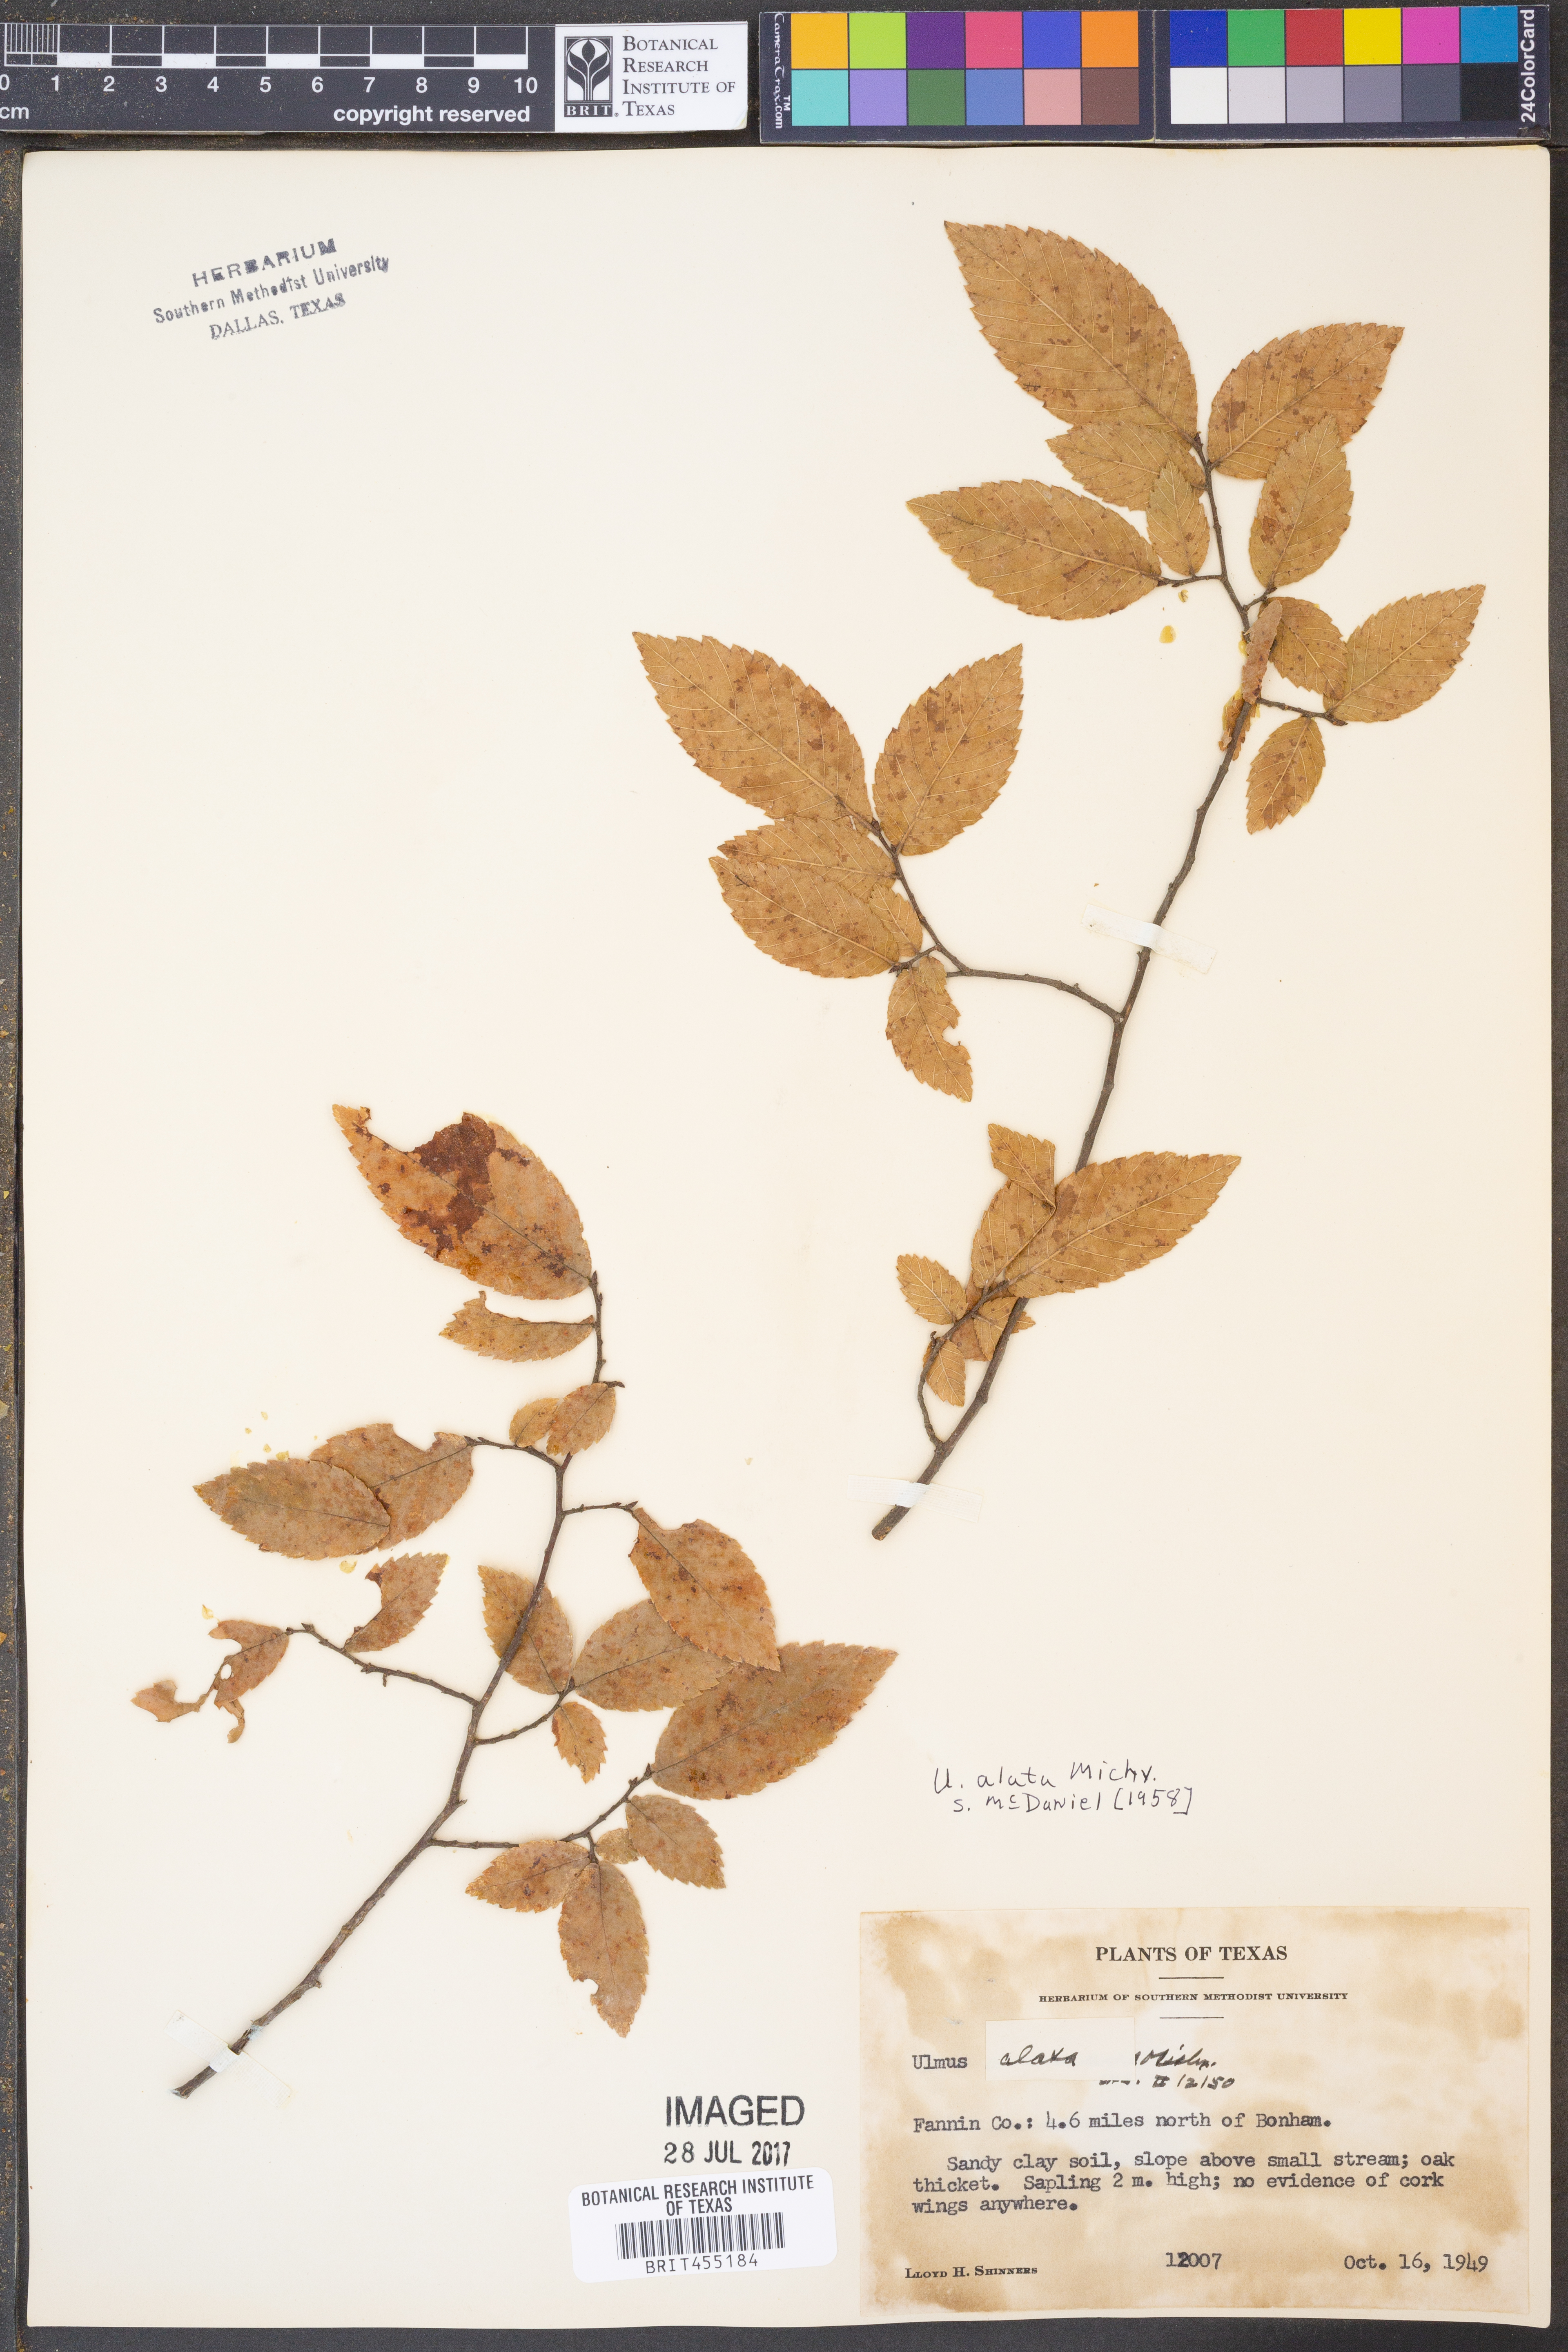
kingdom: Plantae
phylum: Tracheophyta
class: Magnoliopsida
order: Rosales
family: Ulmaceae
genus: Ulmus
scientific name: Ulmus alata
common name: Winged elm
